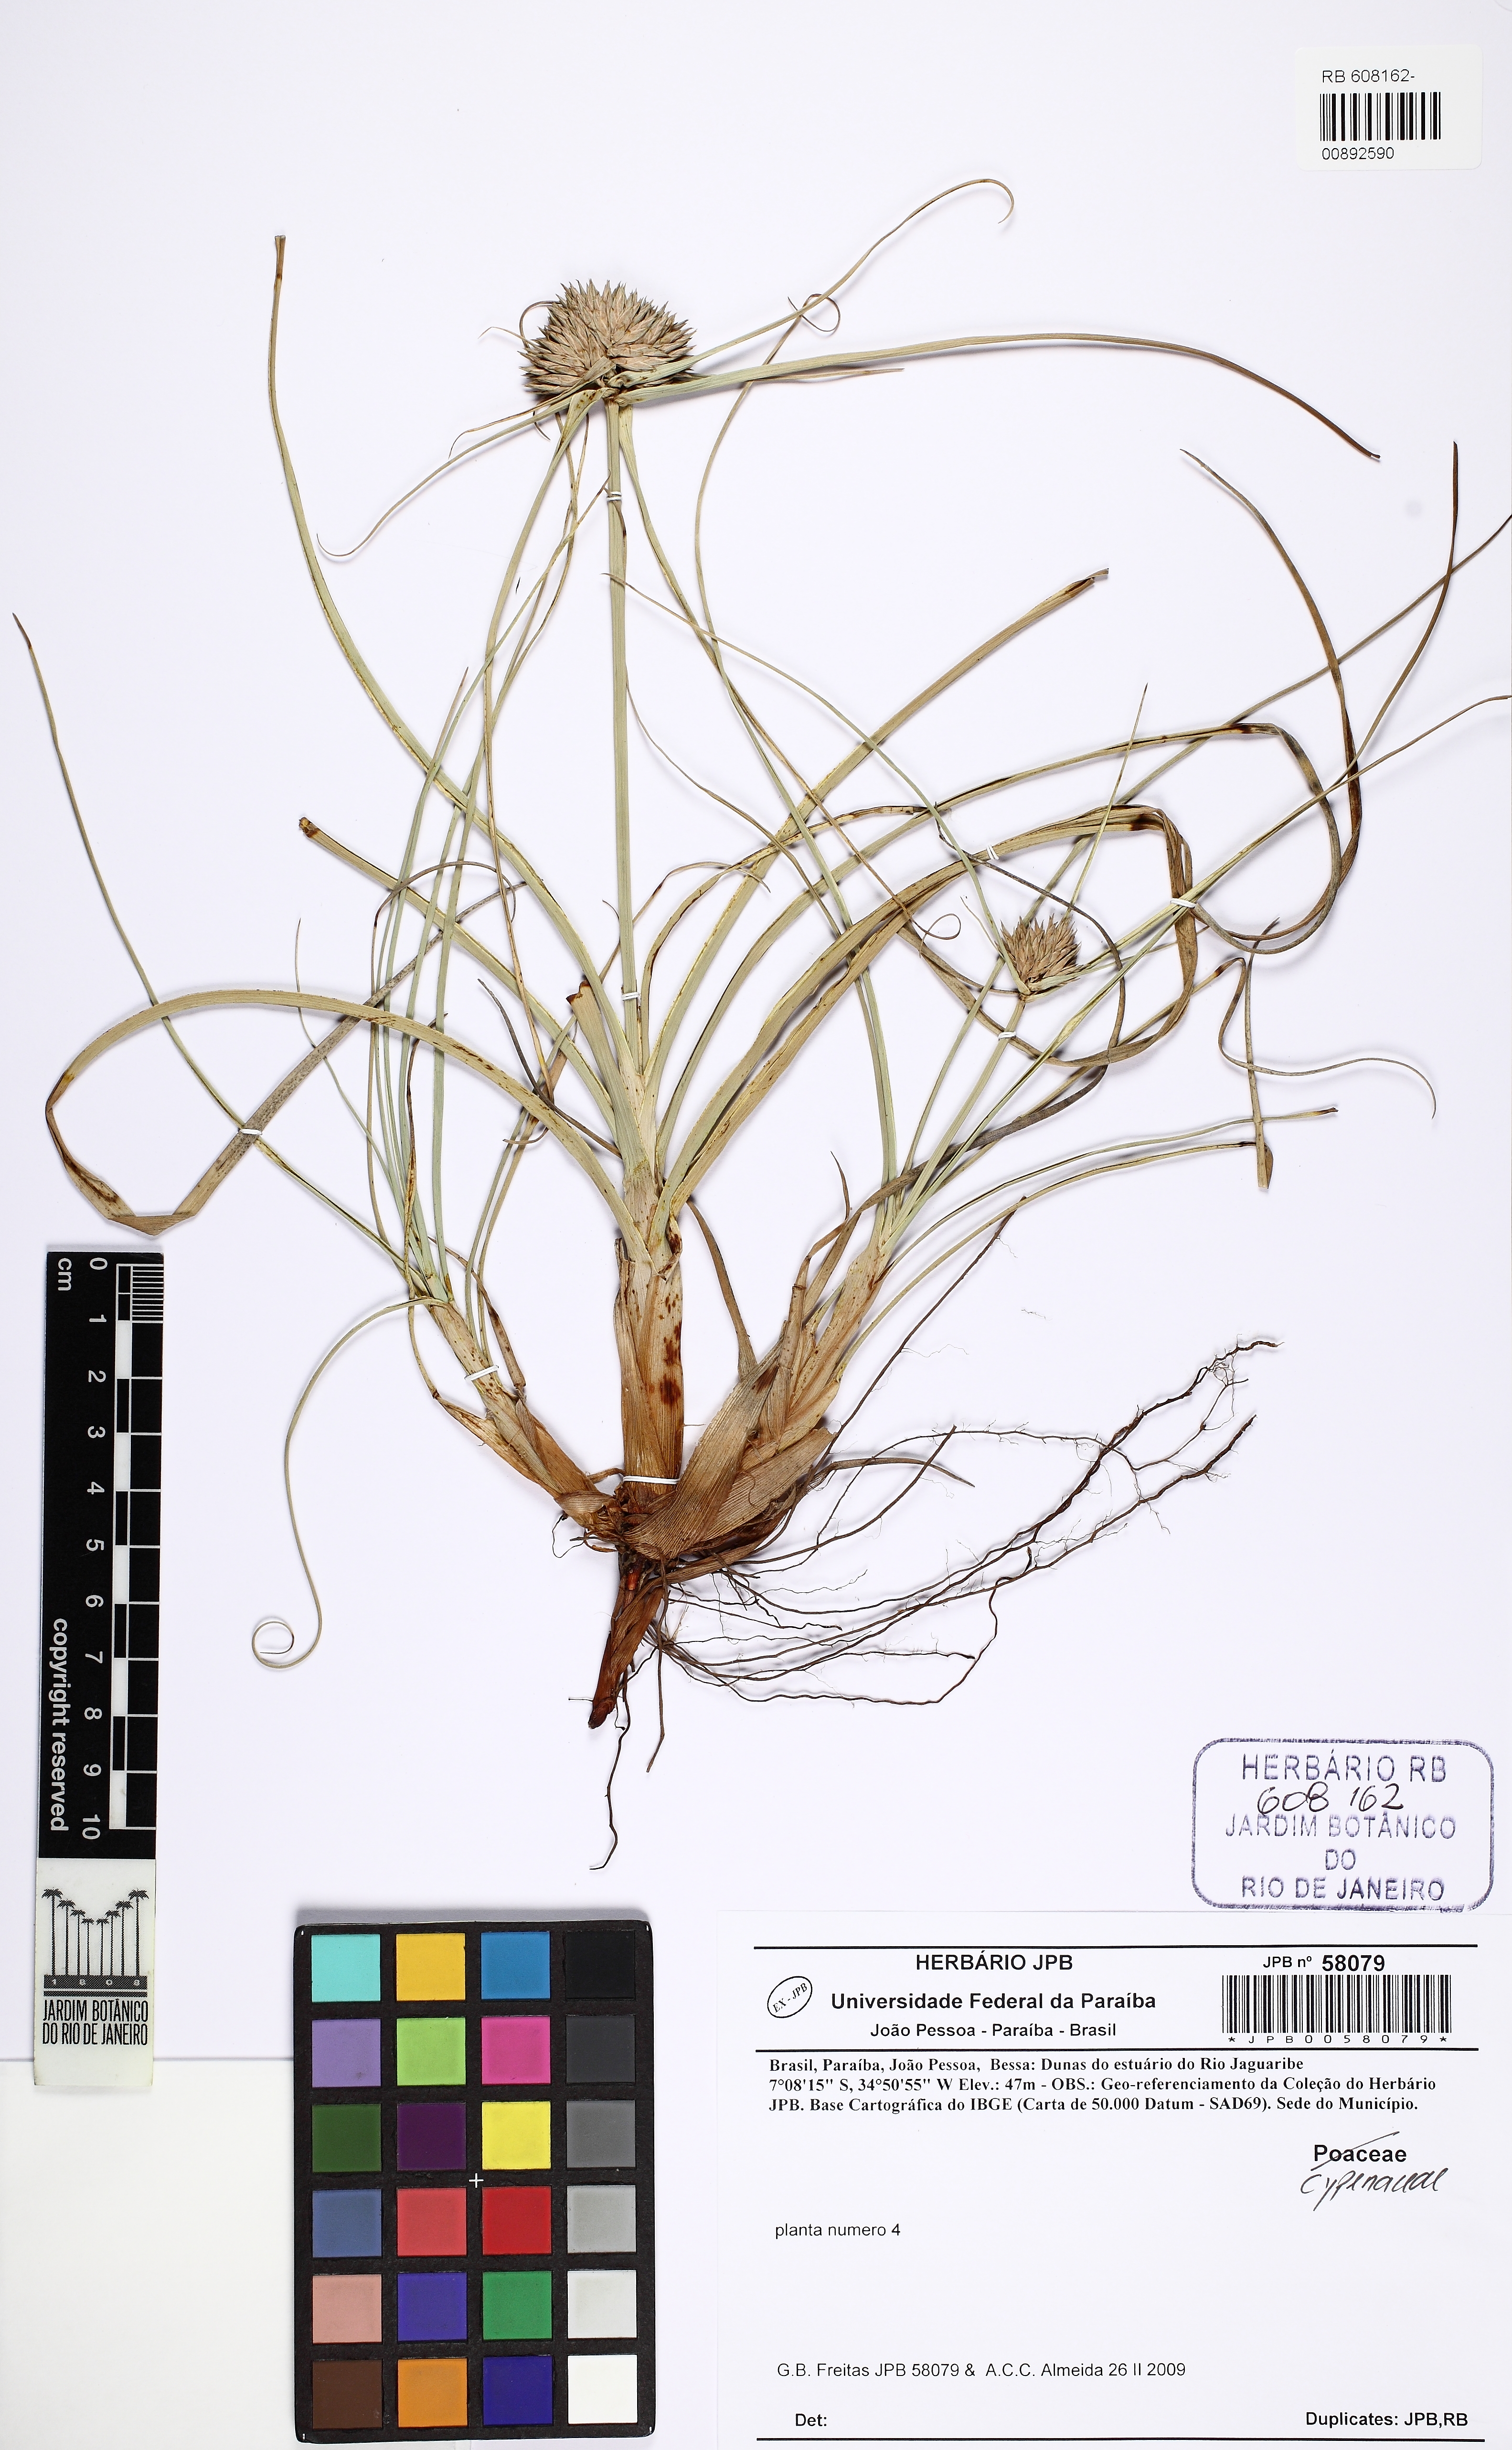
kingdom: Plantae
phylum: Tracheophyta
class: Liliopsida
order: Poales
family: Cyperaceae
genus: Rhynchospora
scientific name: Rhynchospora
